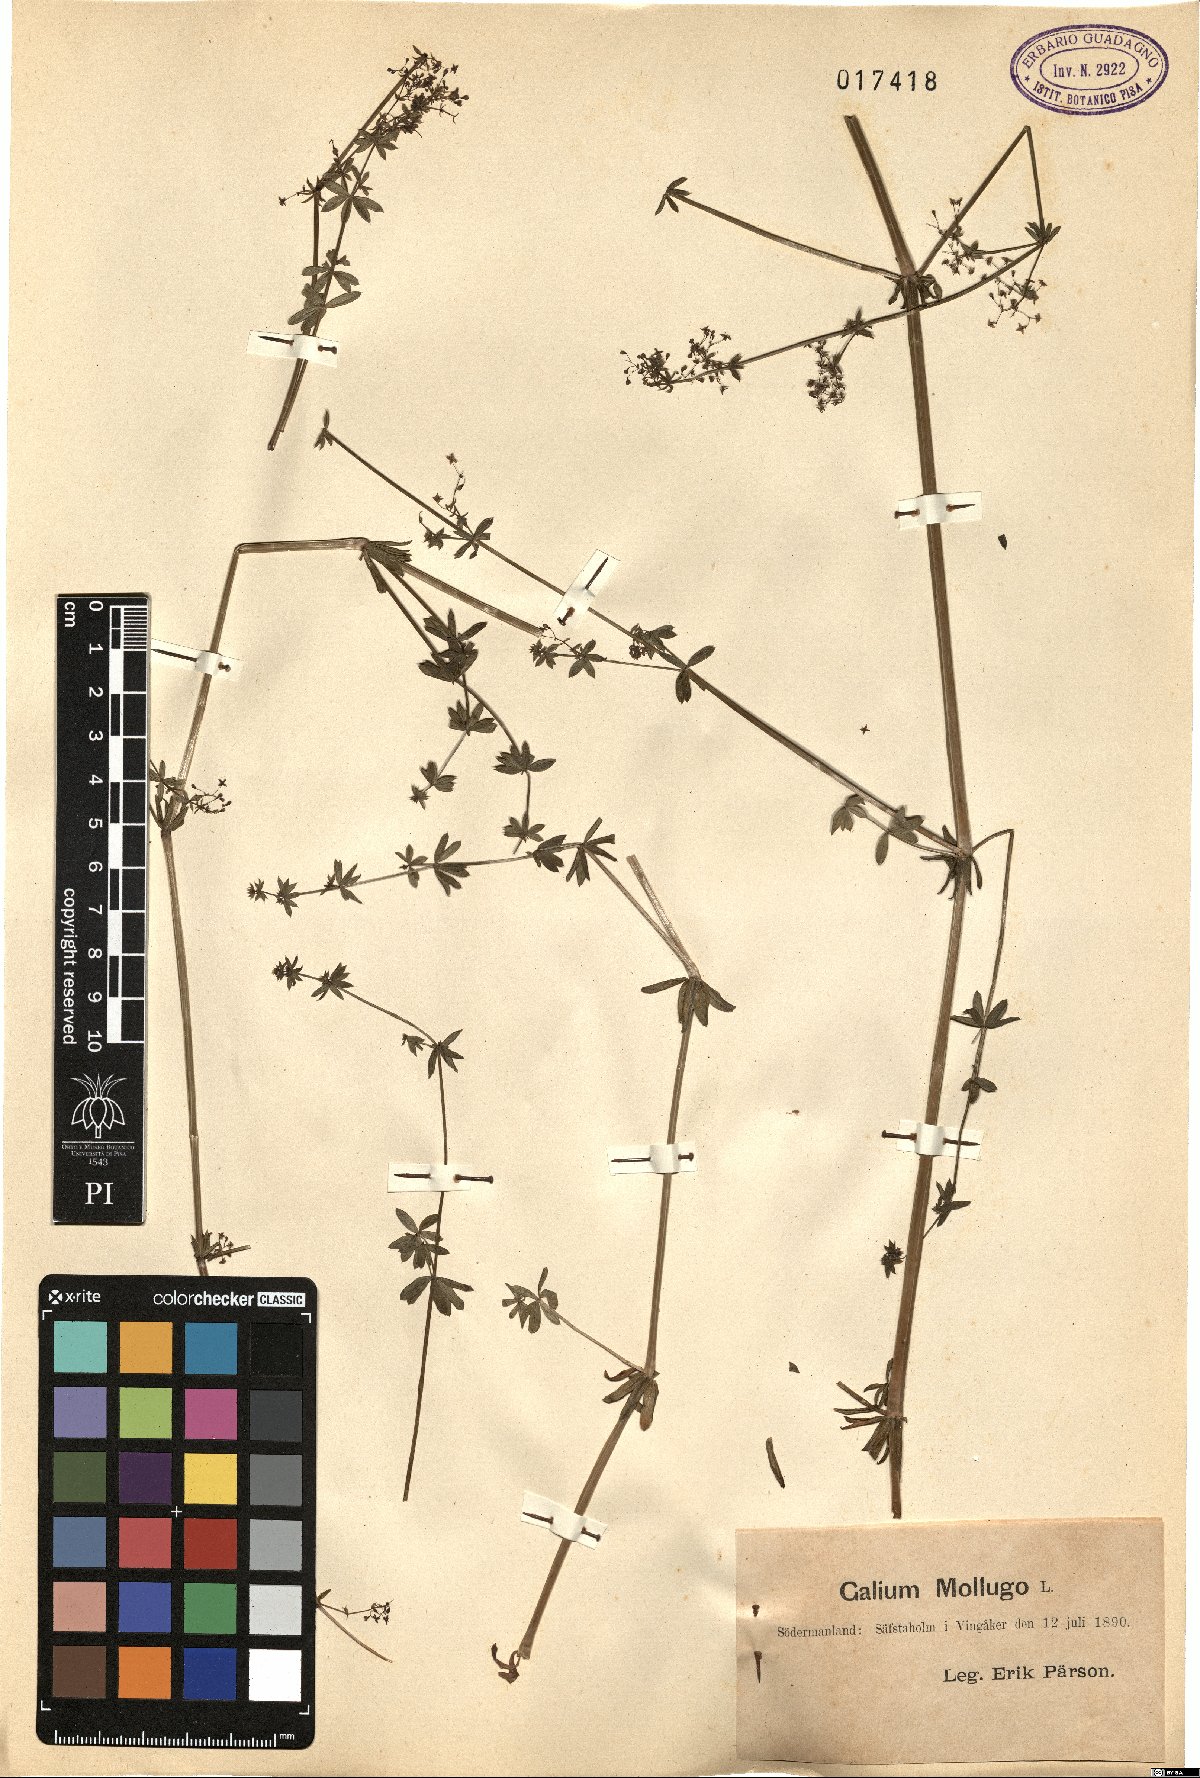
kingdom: Plantae
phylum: Tracheophyta
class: Magnoliopsida
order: Gentianales
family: Rubiaceae
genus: Galium
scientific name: Galium mollugo
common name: Hedge bedstraw
